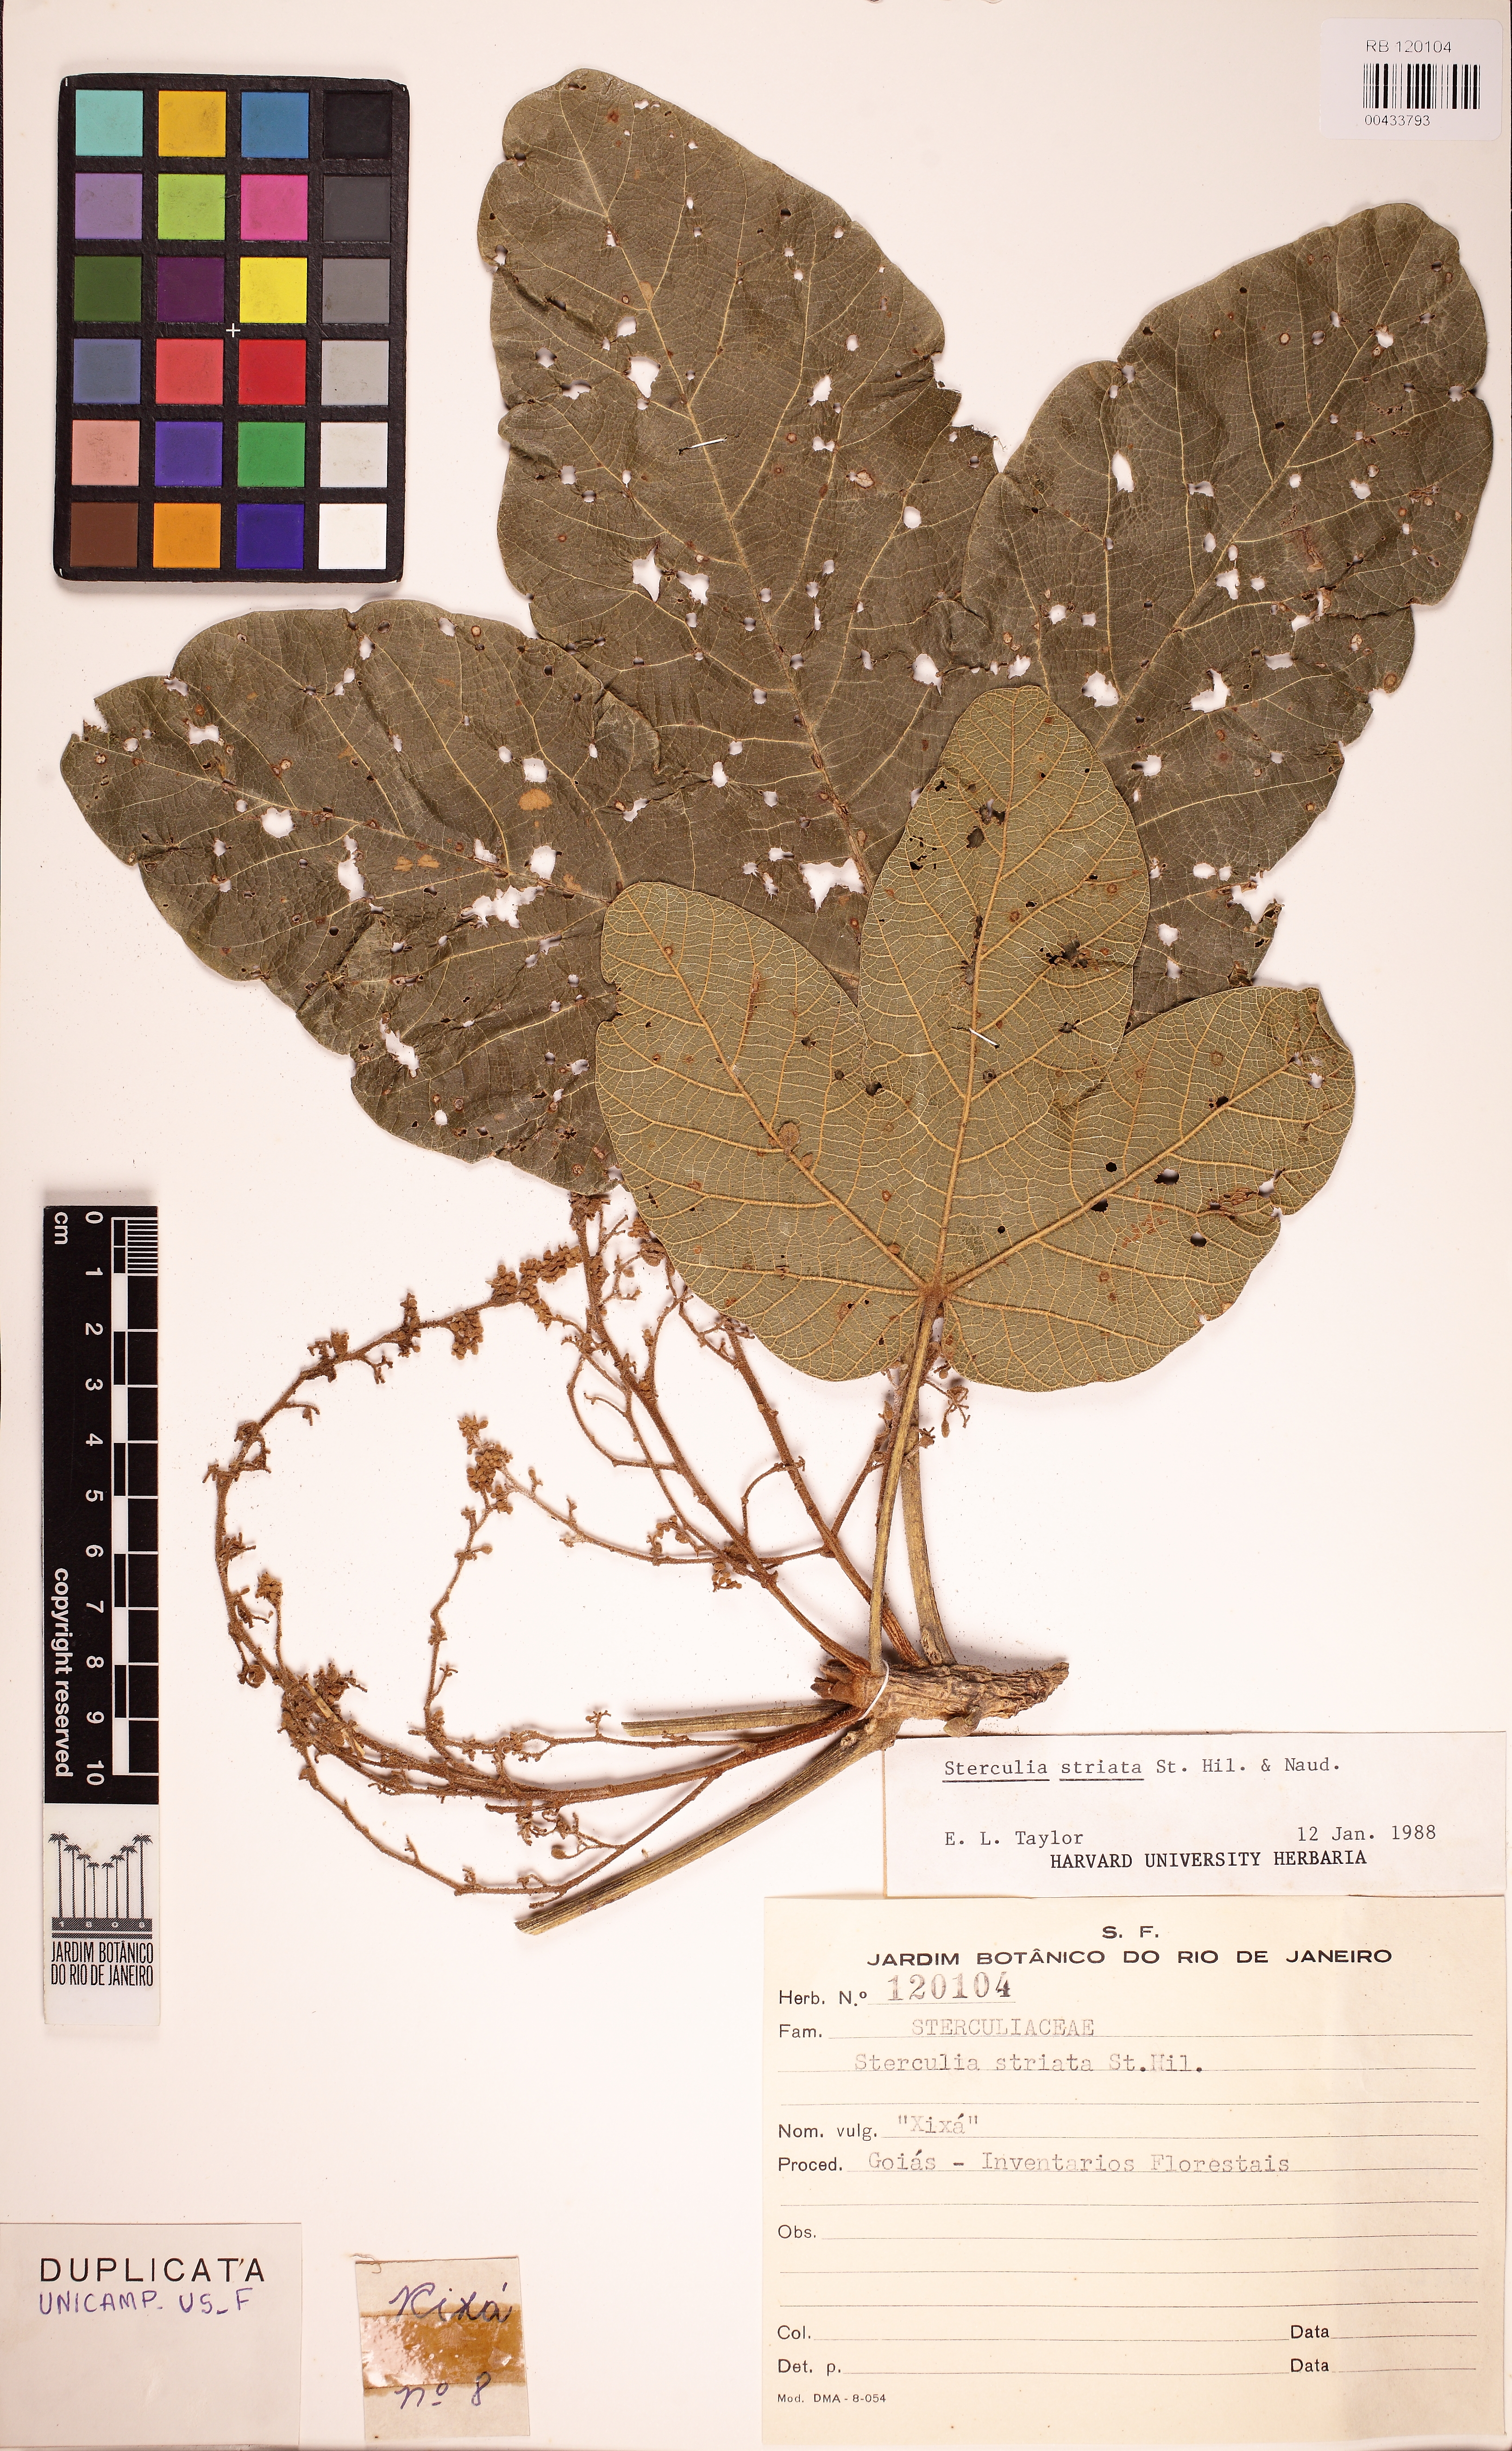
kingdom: Plantae
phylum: Tracheophyta
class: Magnoliopsida
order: Malvales
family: Malvaceae
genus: Sterculia
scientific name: Sterculia striata
